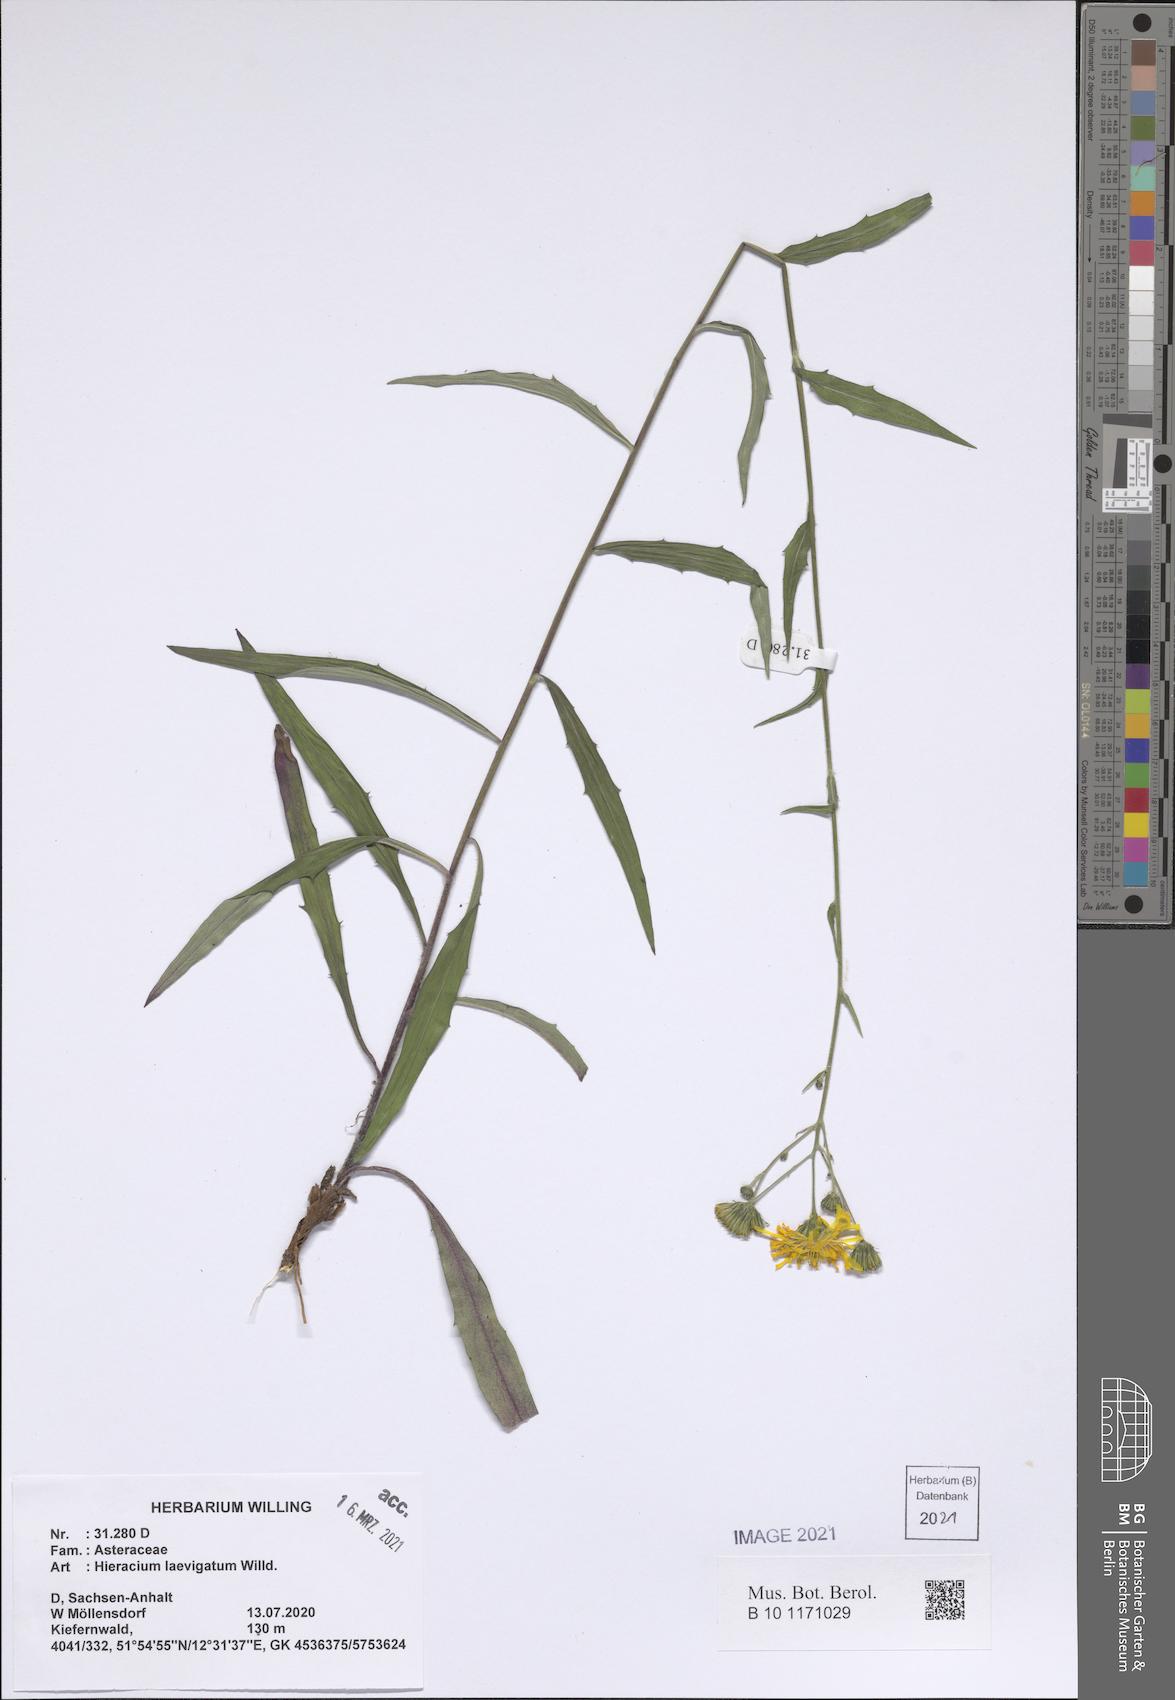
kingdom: Plantae
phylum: Tracheophyta
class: Magnoliopsida
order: Asterales
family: Asteraceae
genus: Hieracium
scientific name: Hieracium laevigatum
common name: Smooth hawkweed
